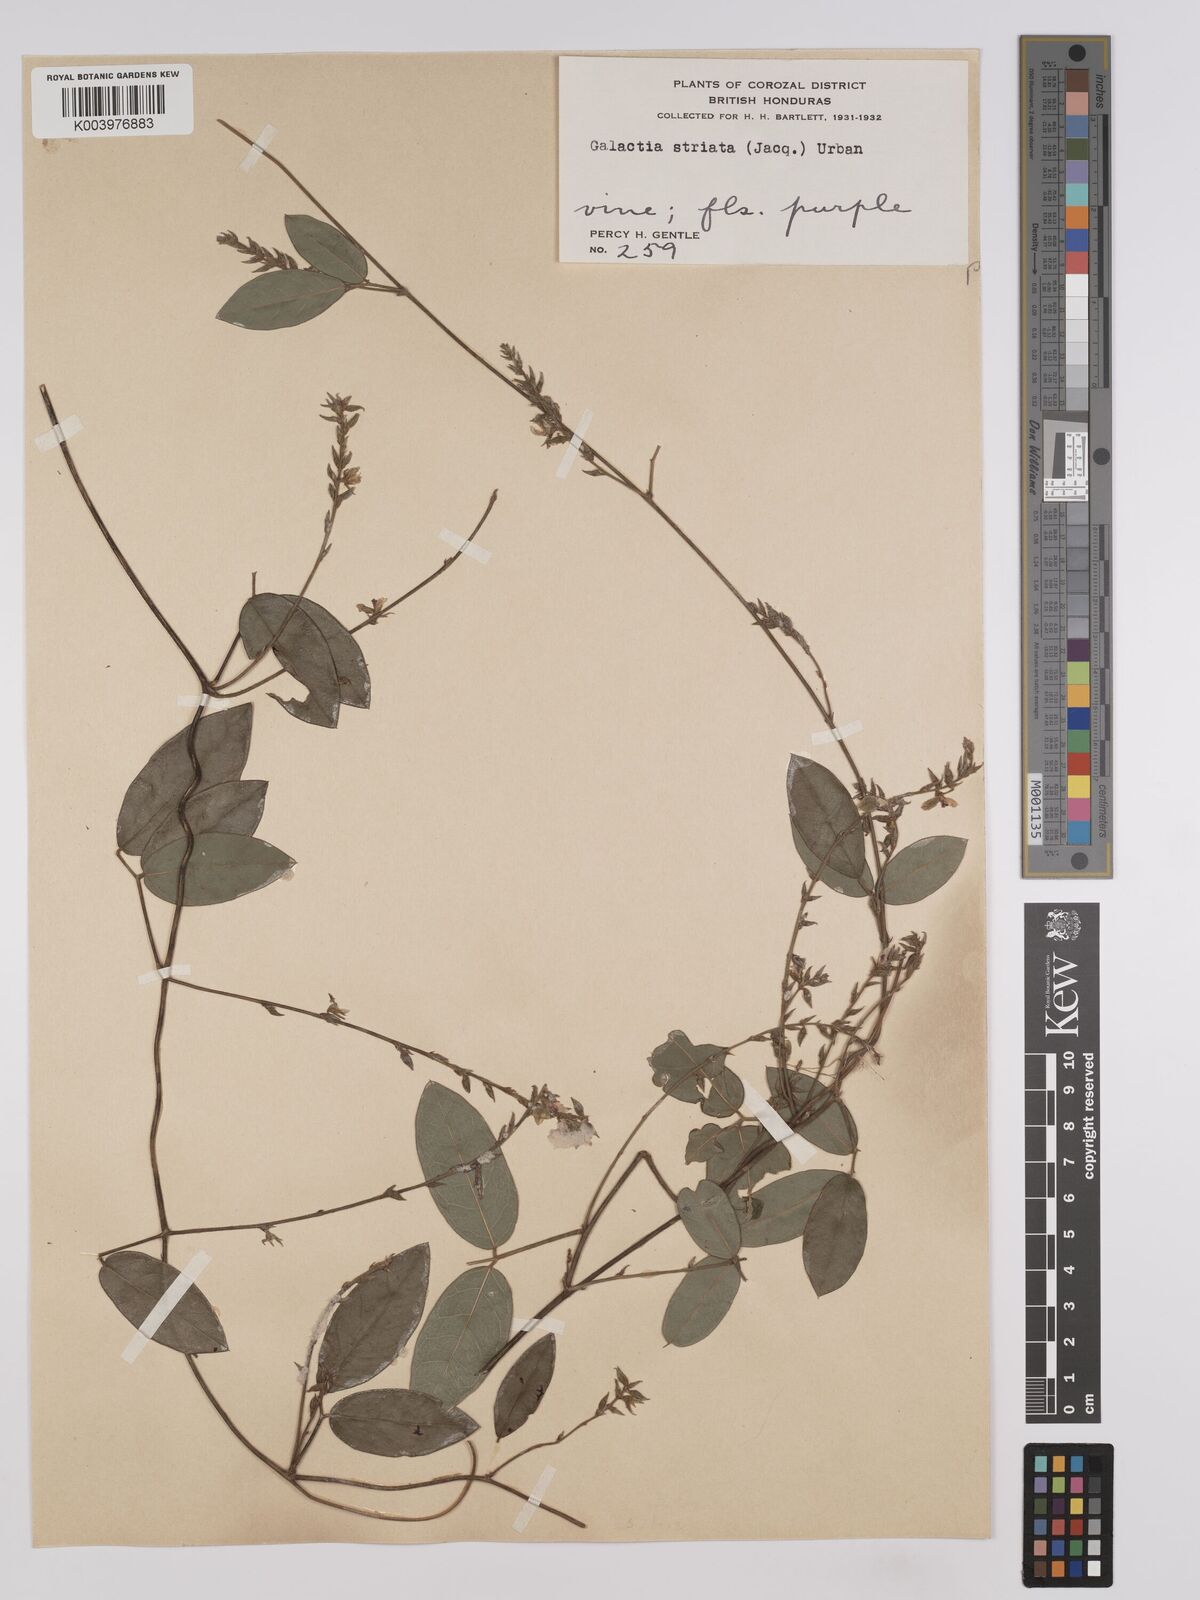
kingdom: Plantae
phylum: Tracheophyta
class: Magnoliopsida
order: Fabales
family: Fabaceae
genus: Galactia
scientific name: Galactia striata
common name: Florida hammock milkpea
